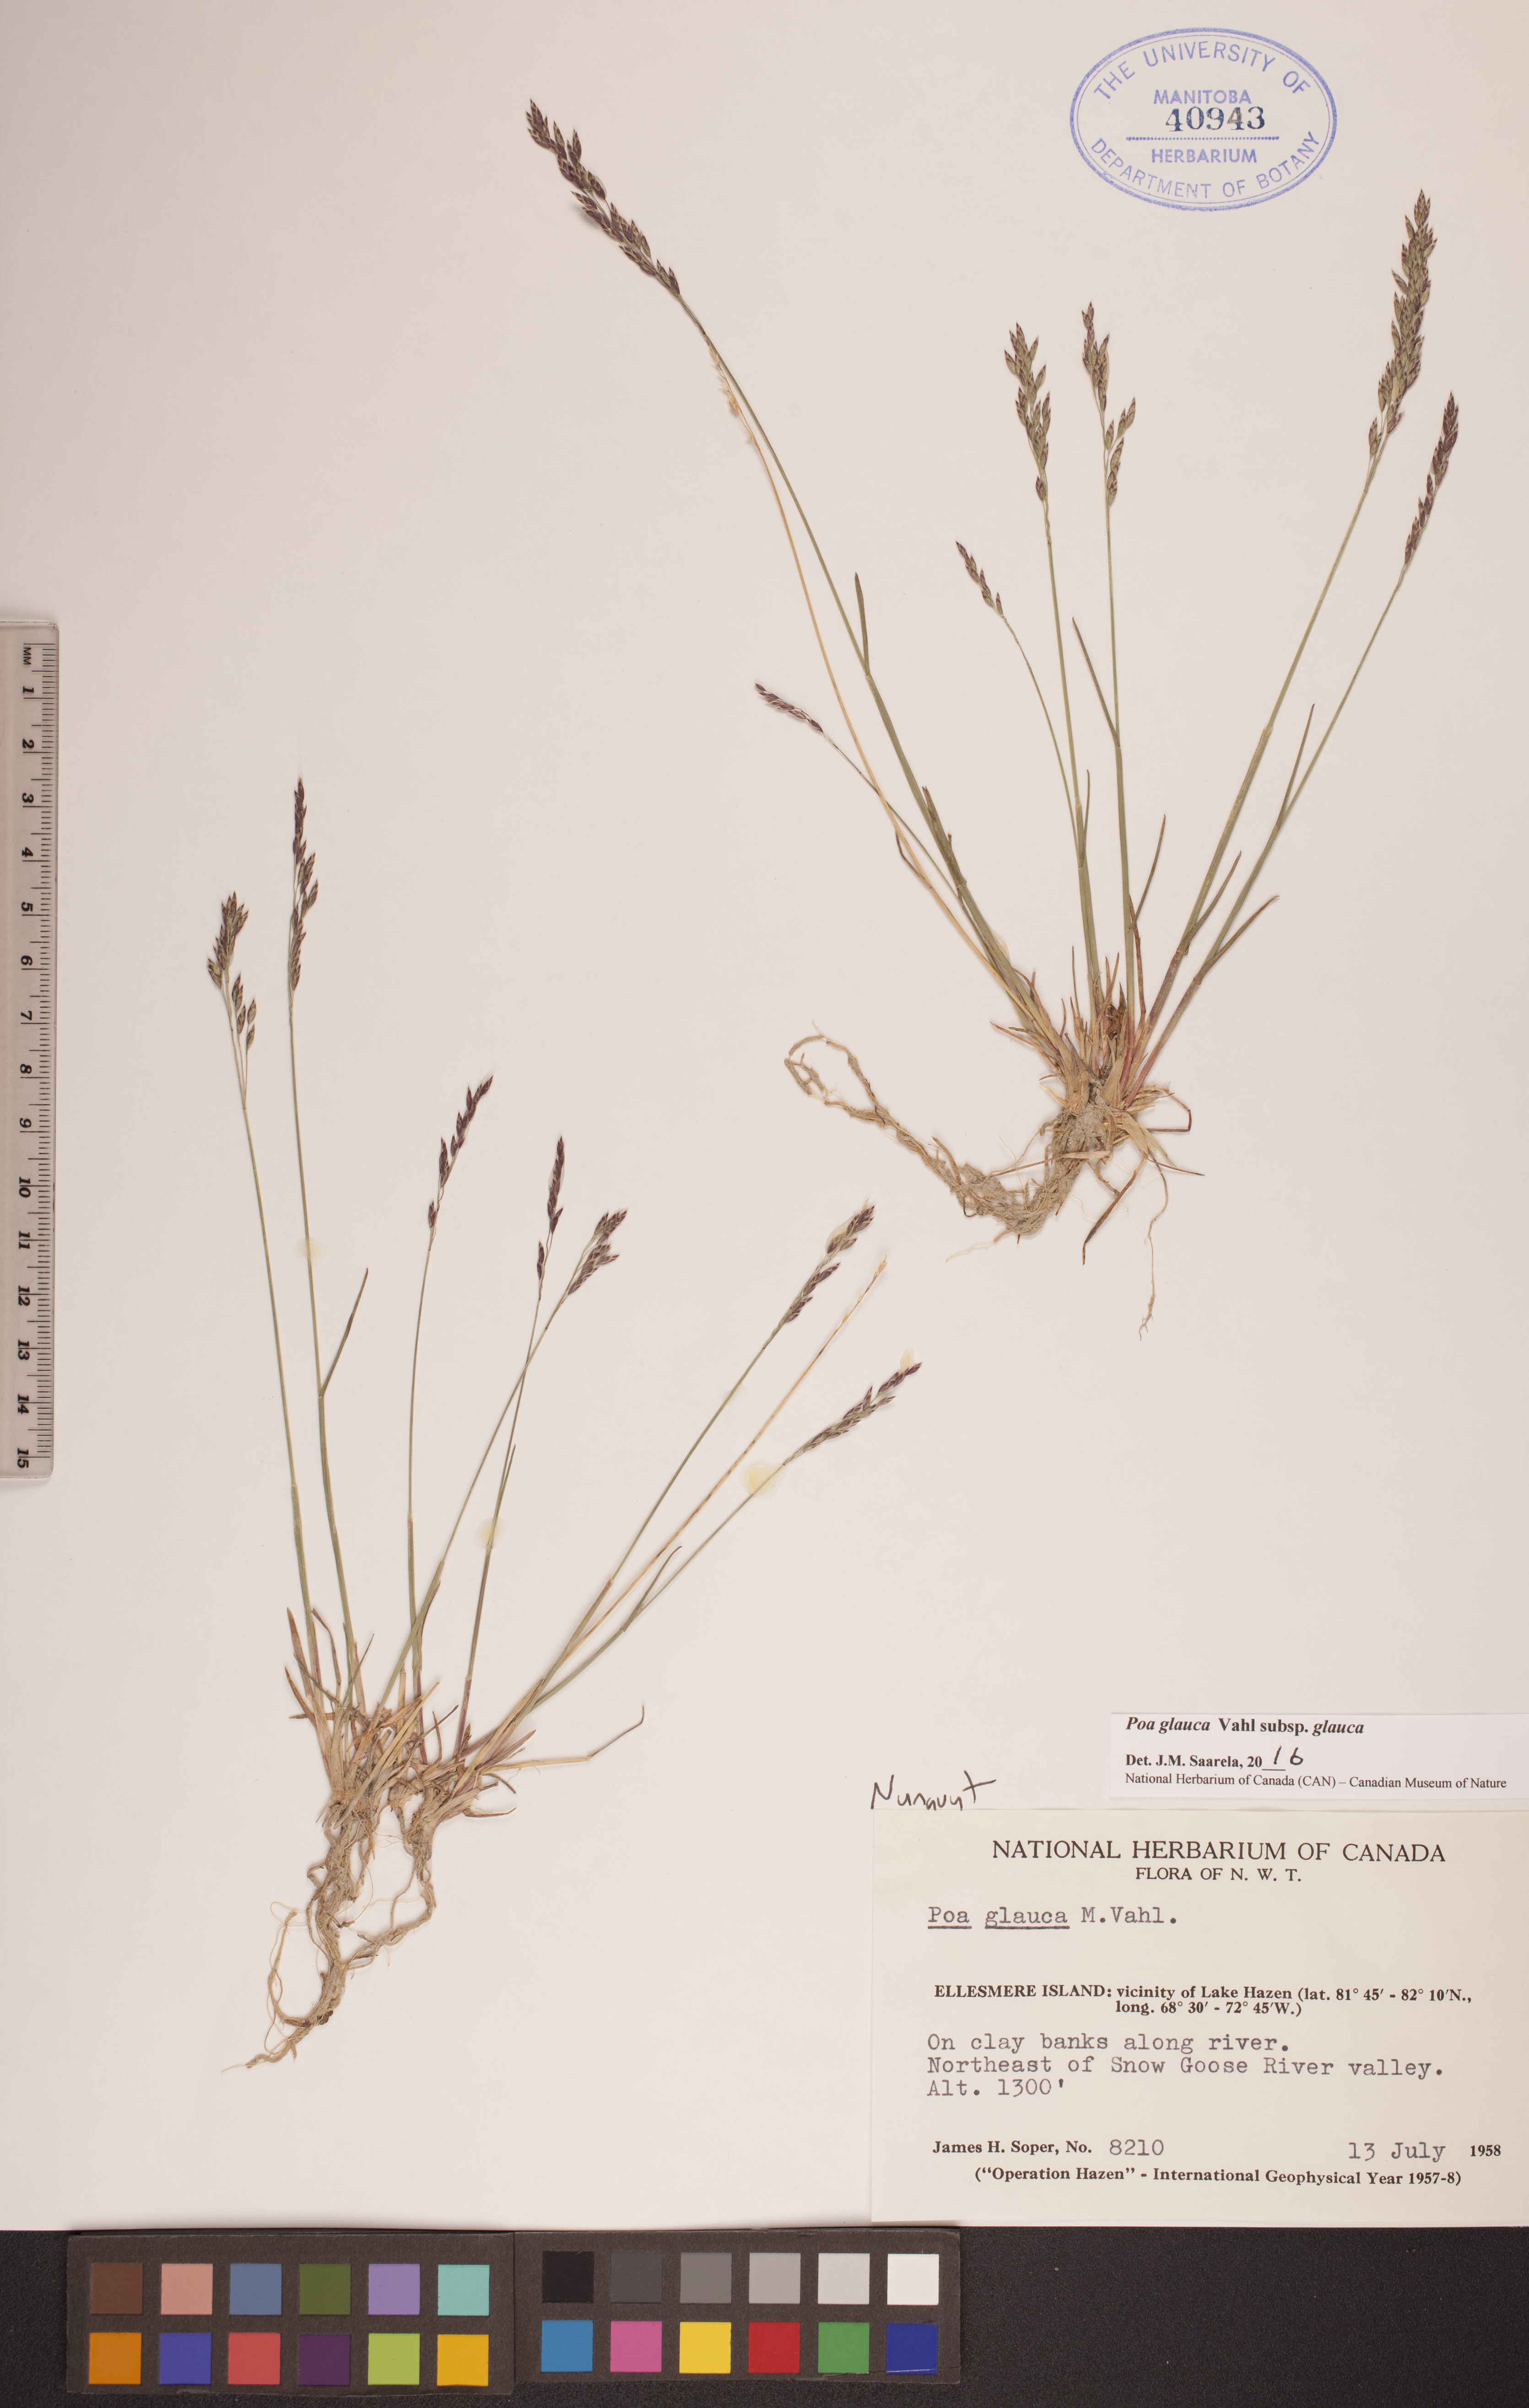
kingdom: Plantae
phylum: Tracheophyta
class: Liliopsida
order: Poales
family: Poaceae
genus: Poa
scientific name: Poa glauca
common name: Glaucous bluegrass
